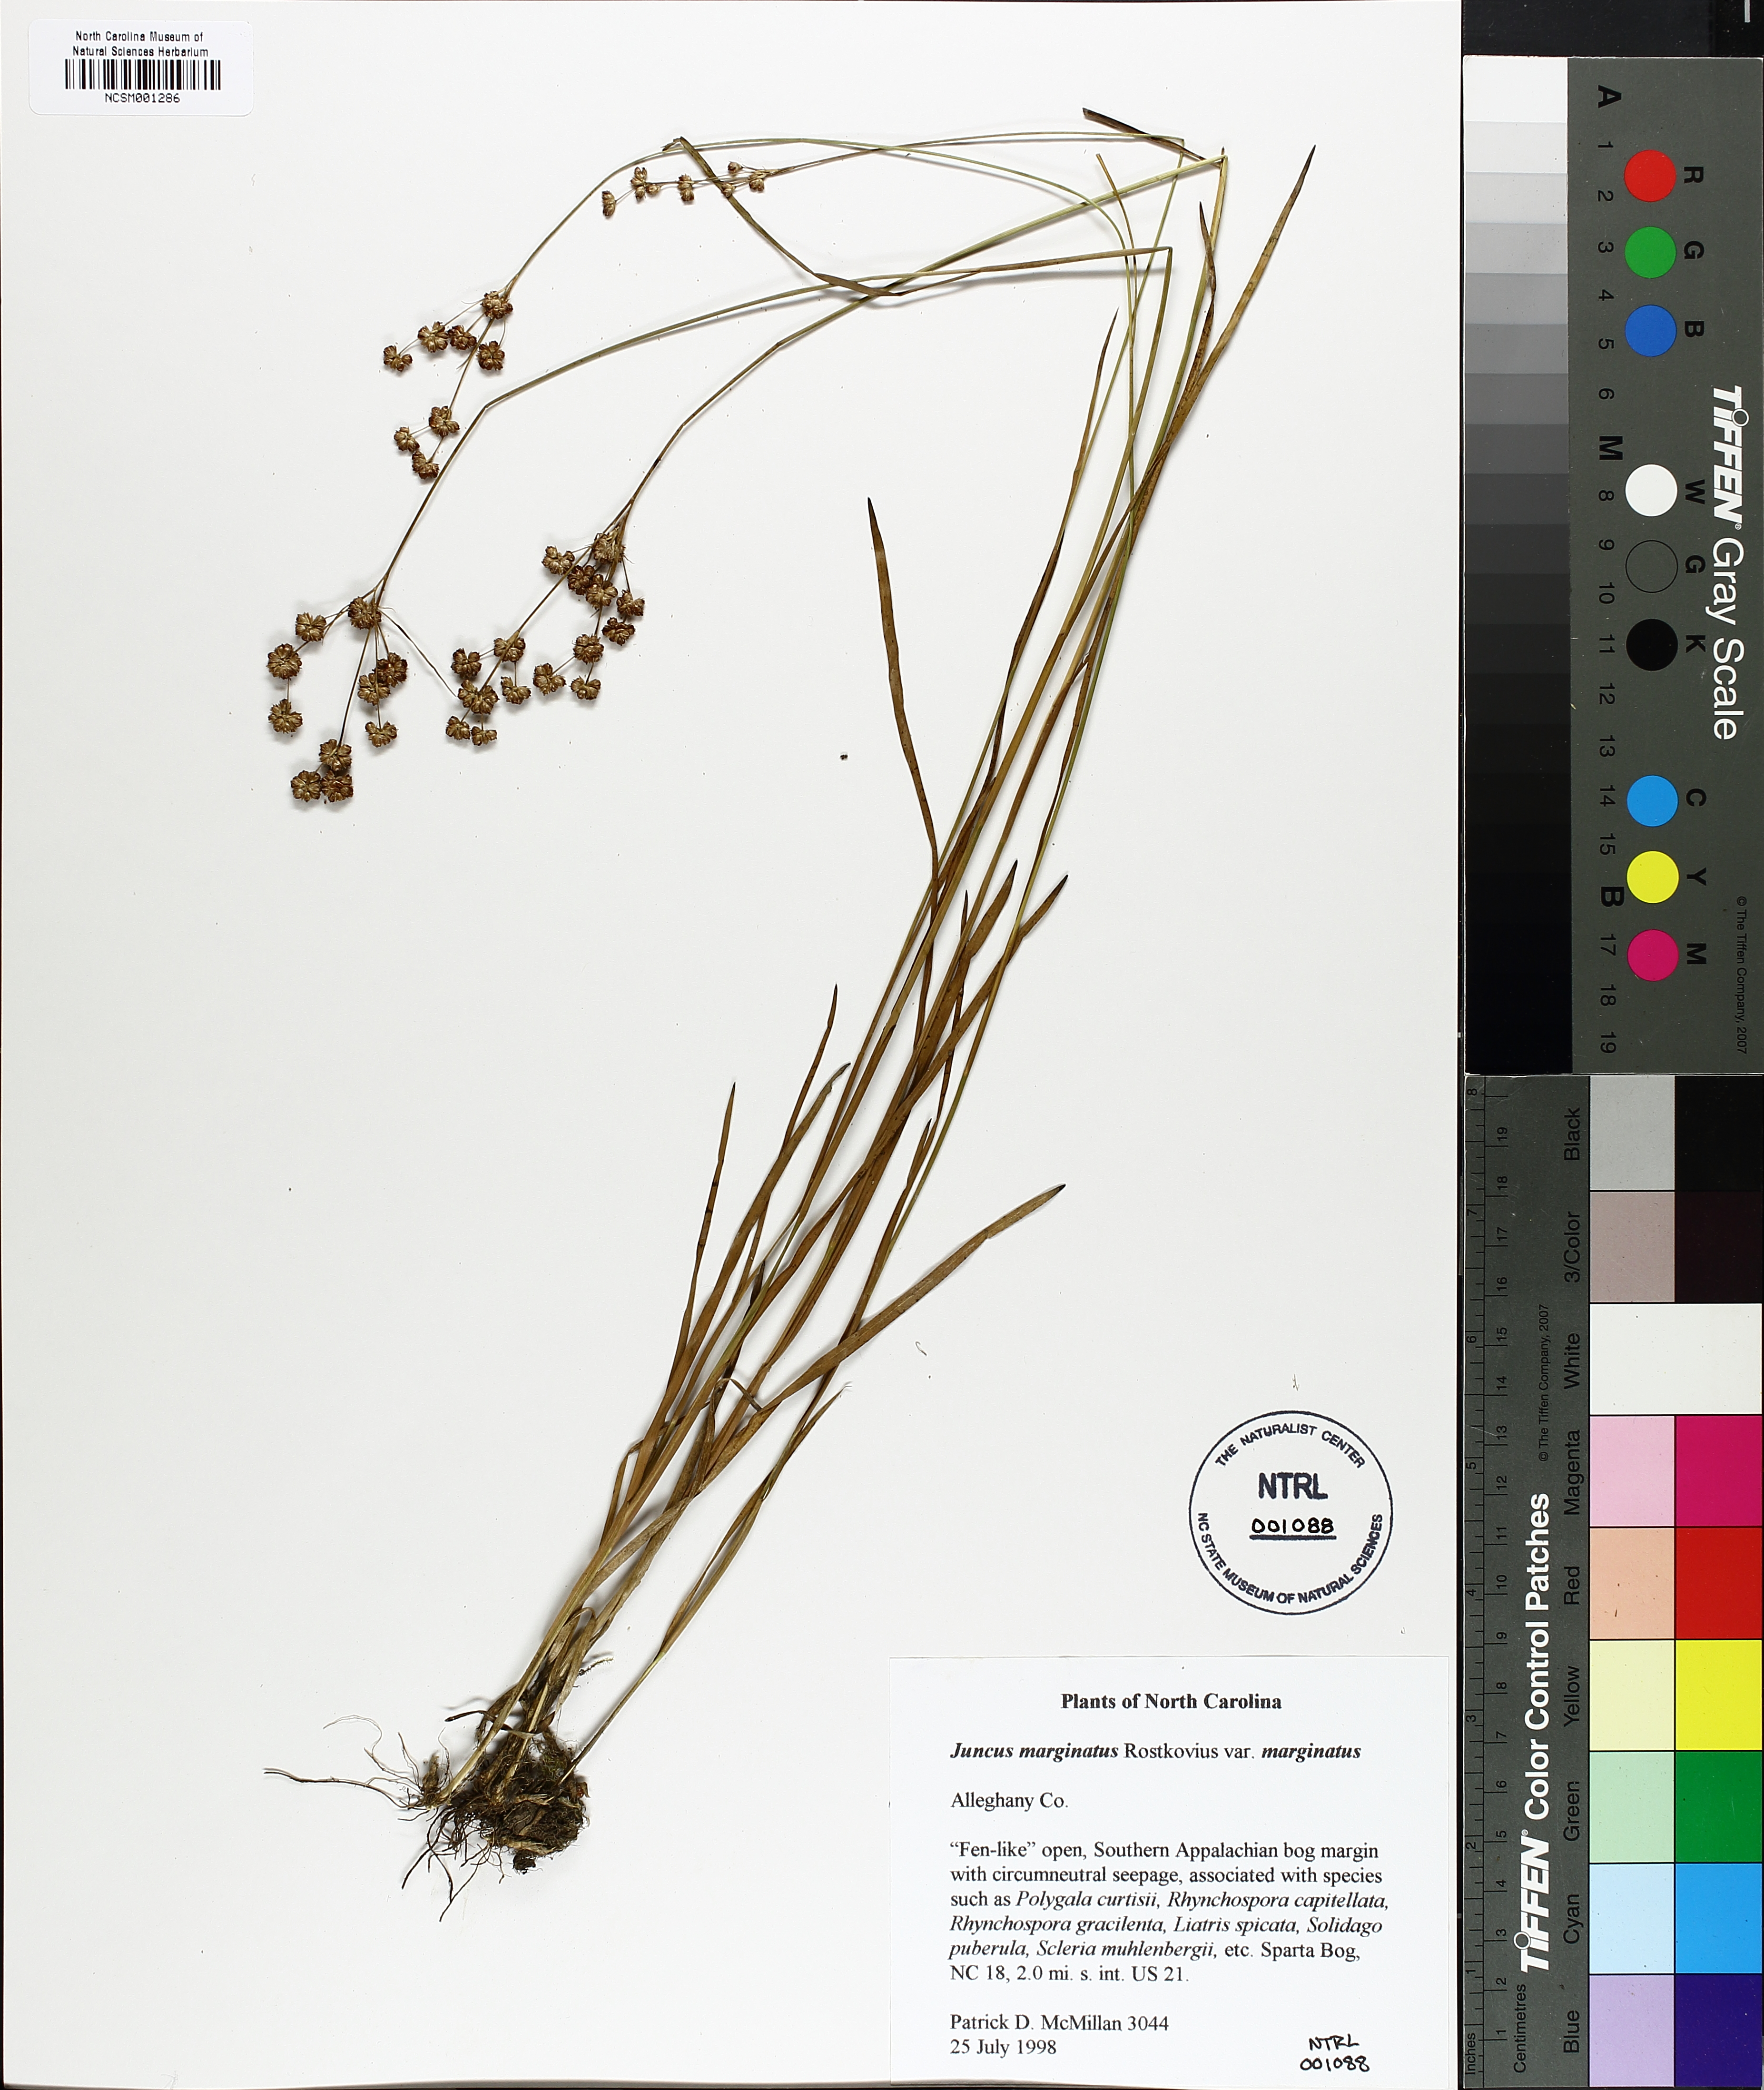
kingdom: Plantae
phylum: Tracheophyta
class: Liliopsida
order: Poales
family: Juncaceae
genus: Juncus
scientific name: Juncus marginatus
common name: Grass-leaf rush
